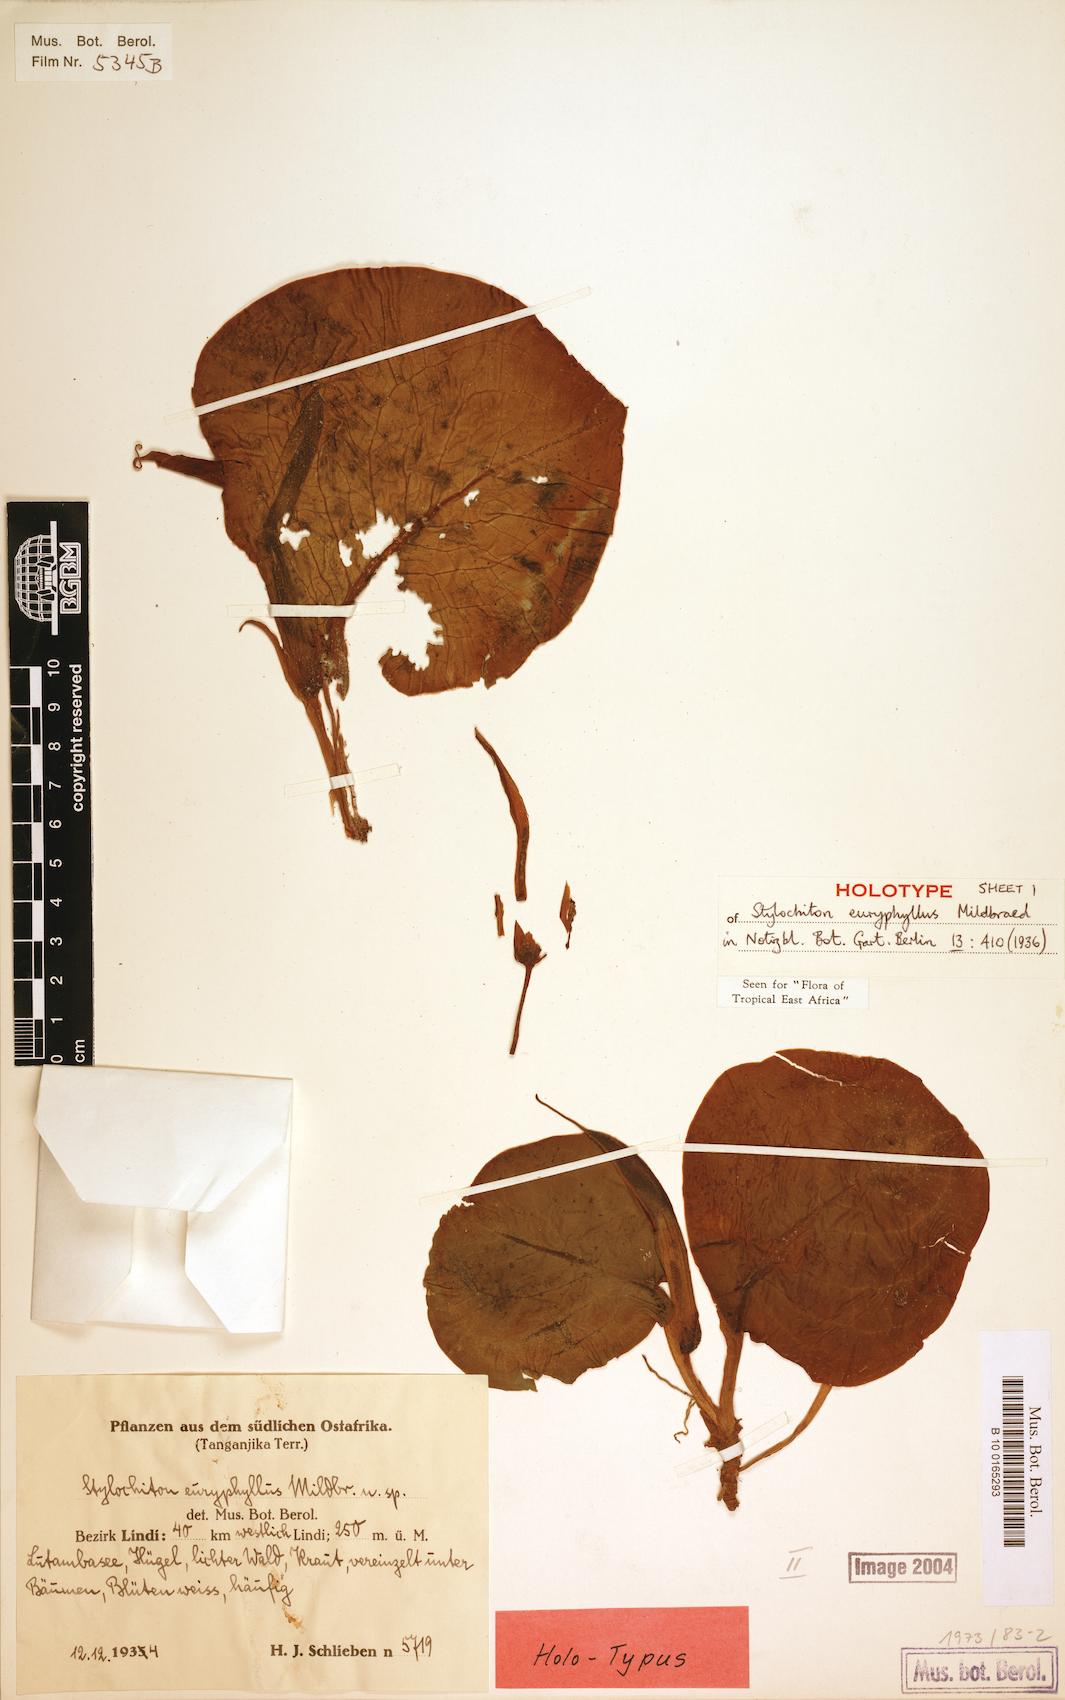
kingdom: Plantae
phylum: Tracheophyta
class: Liliopsida
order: Alismatales
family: Araceae
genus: Stylochaeton
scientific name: Stylochaeton euryphyllum
